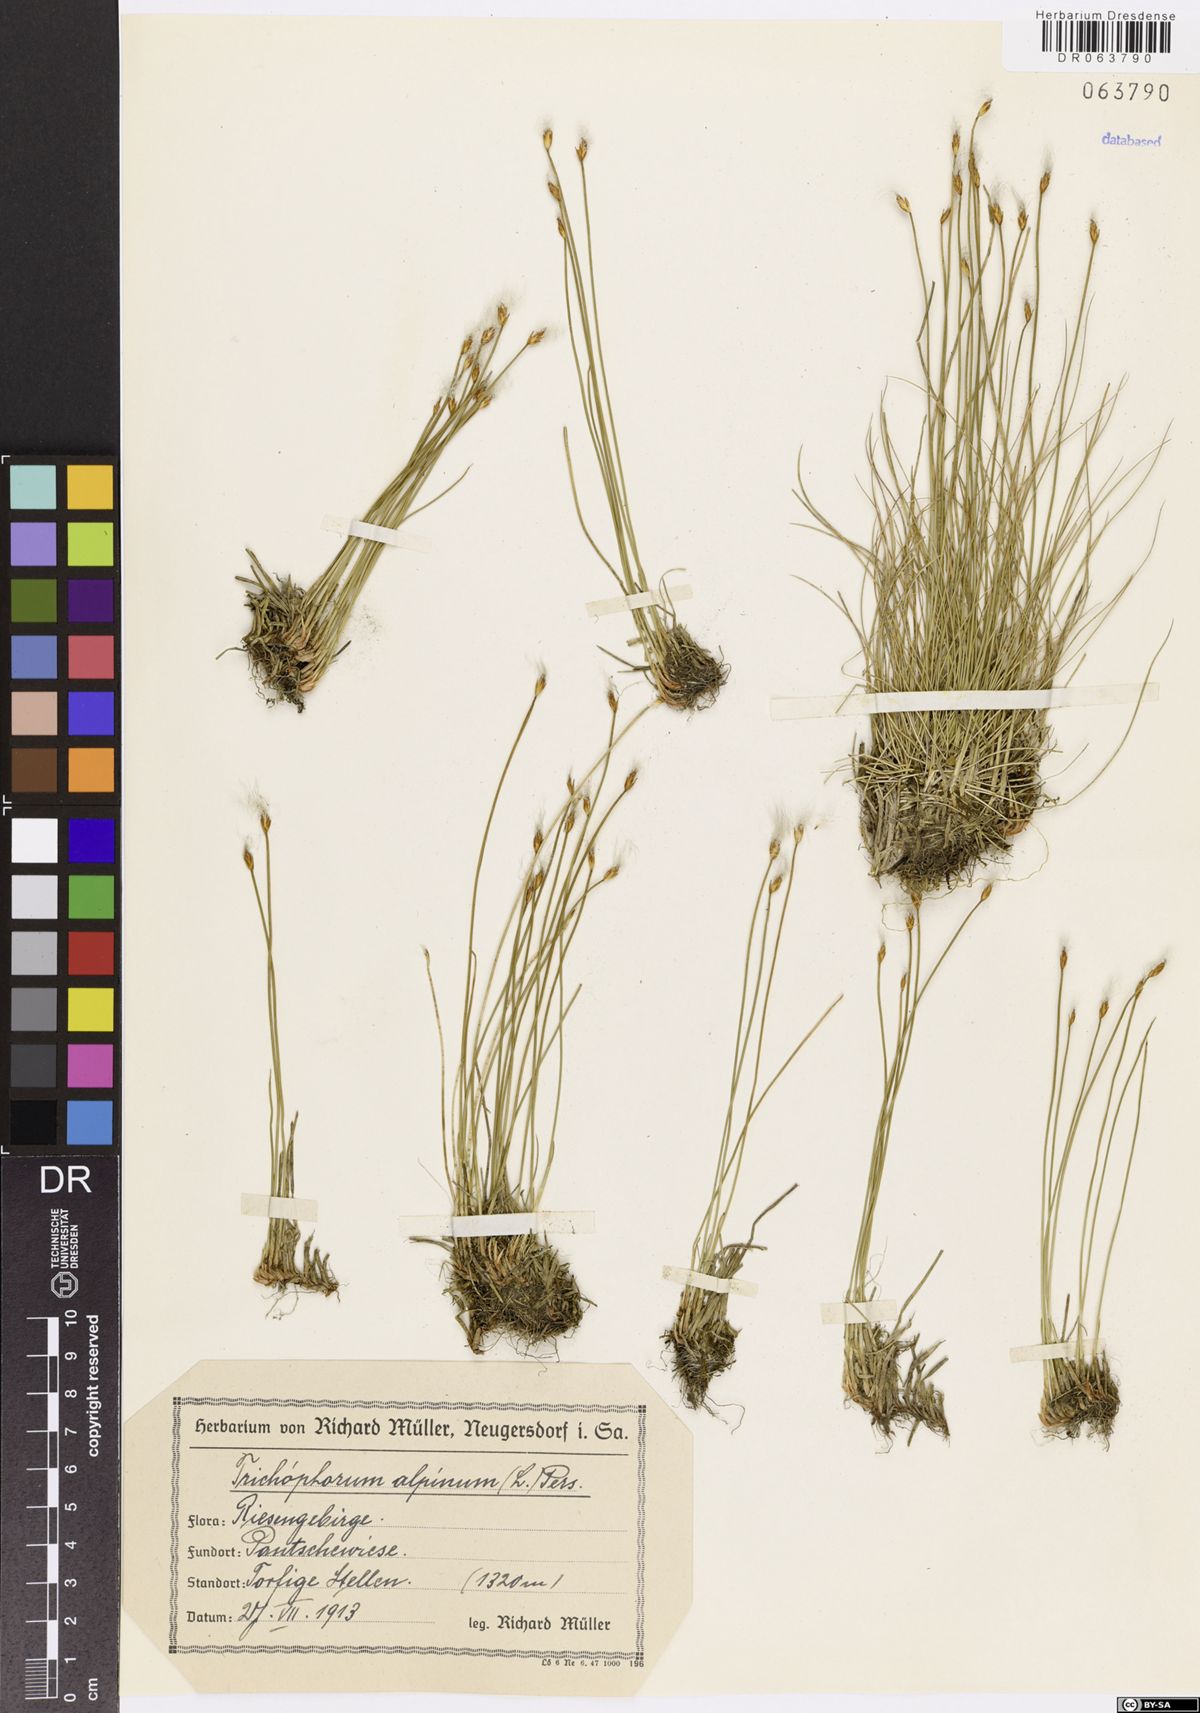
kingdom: Plantae
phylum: Tracheophyta
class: Liliopsida
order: Poales
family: Cyperaceae
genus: Trichophorum
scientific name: Trichophorum alpinum
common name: Alpine bulrush
